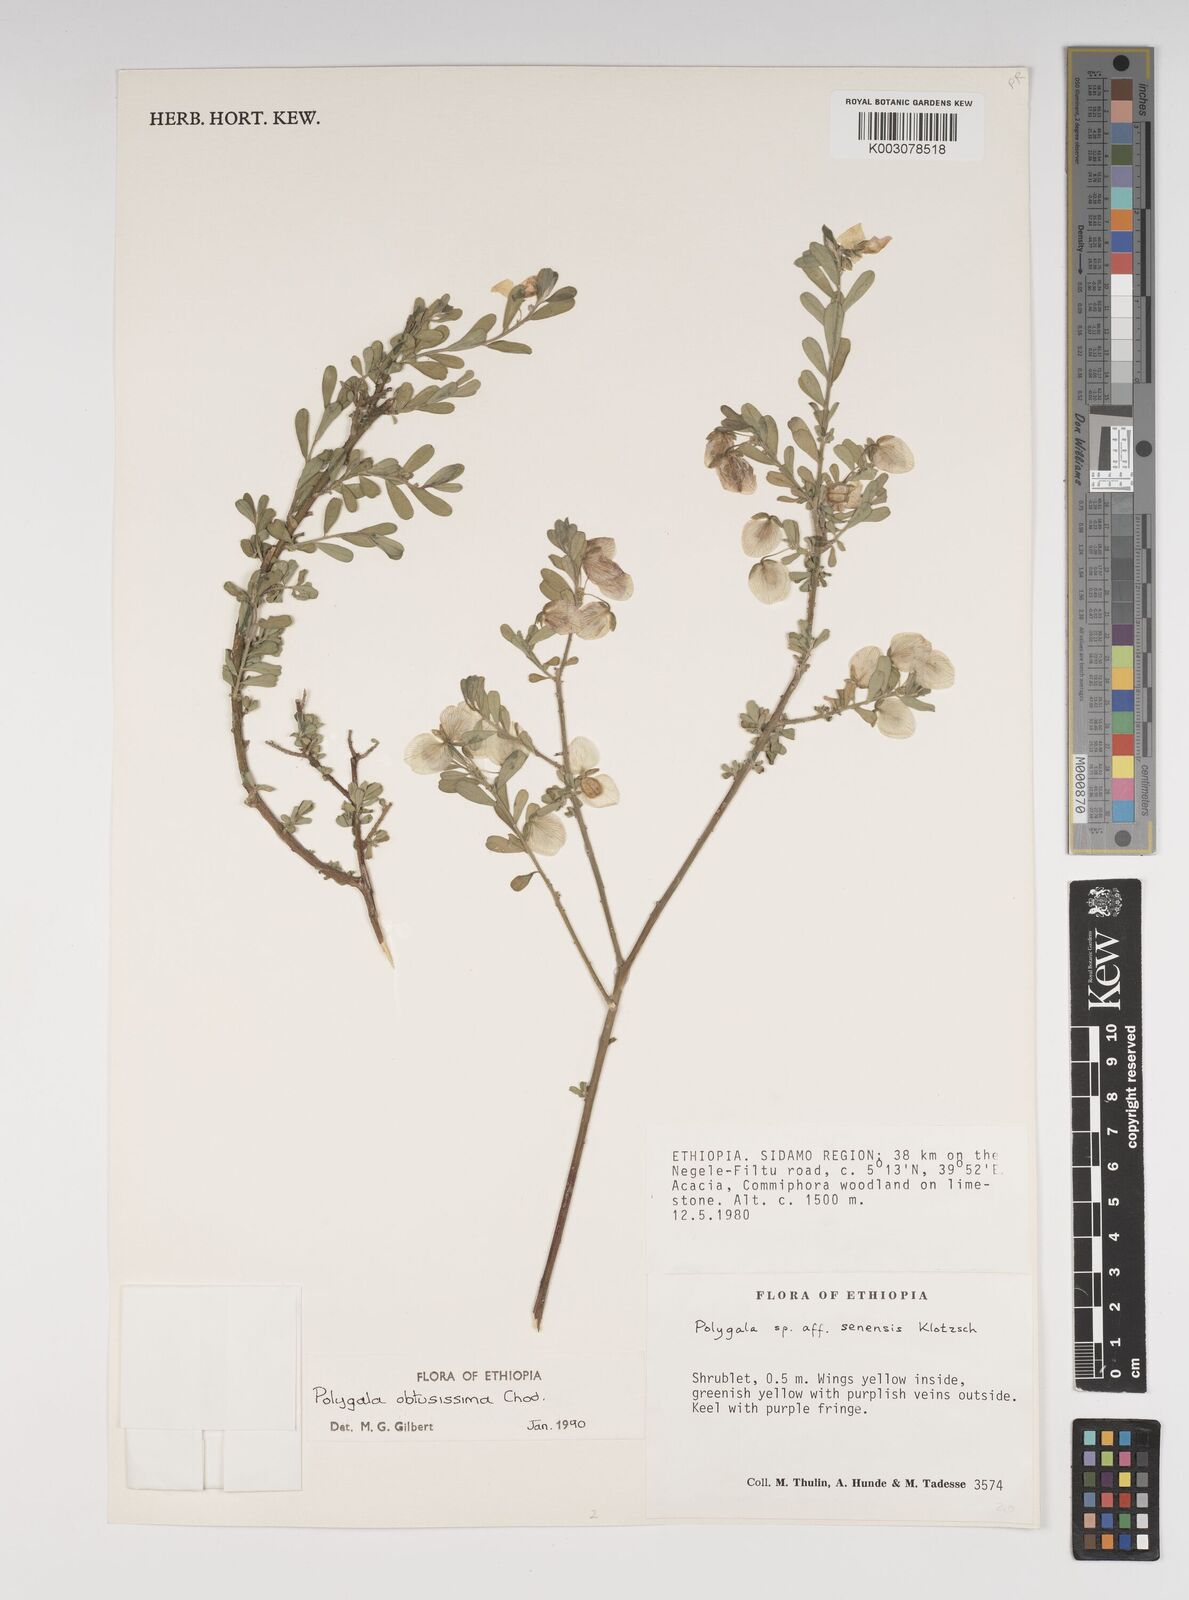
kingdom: Plantae
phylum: Tracheophyta
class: Magnoliopsida
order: Fabales
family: Polygalaceae
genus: Polygala
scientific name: Polygala senensis
